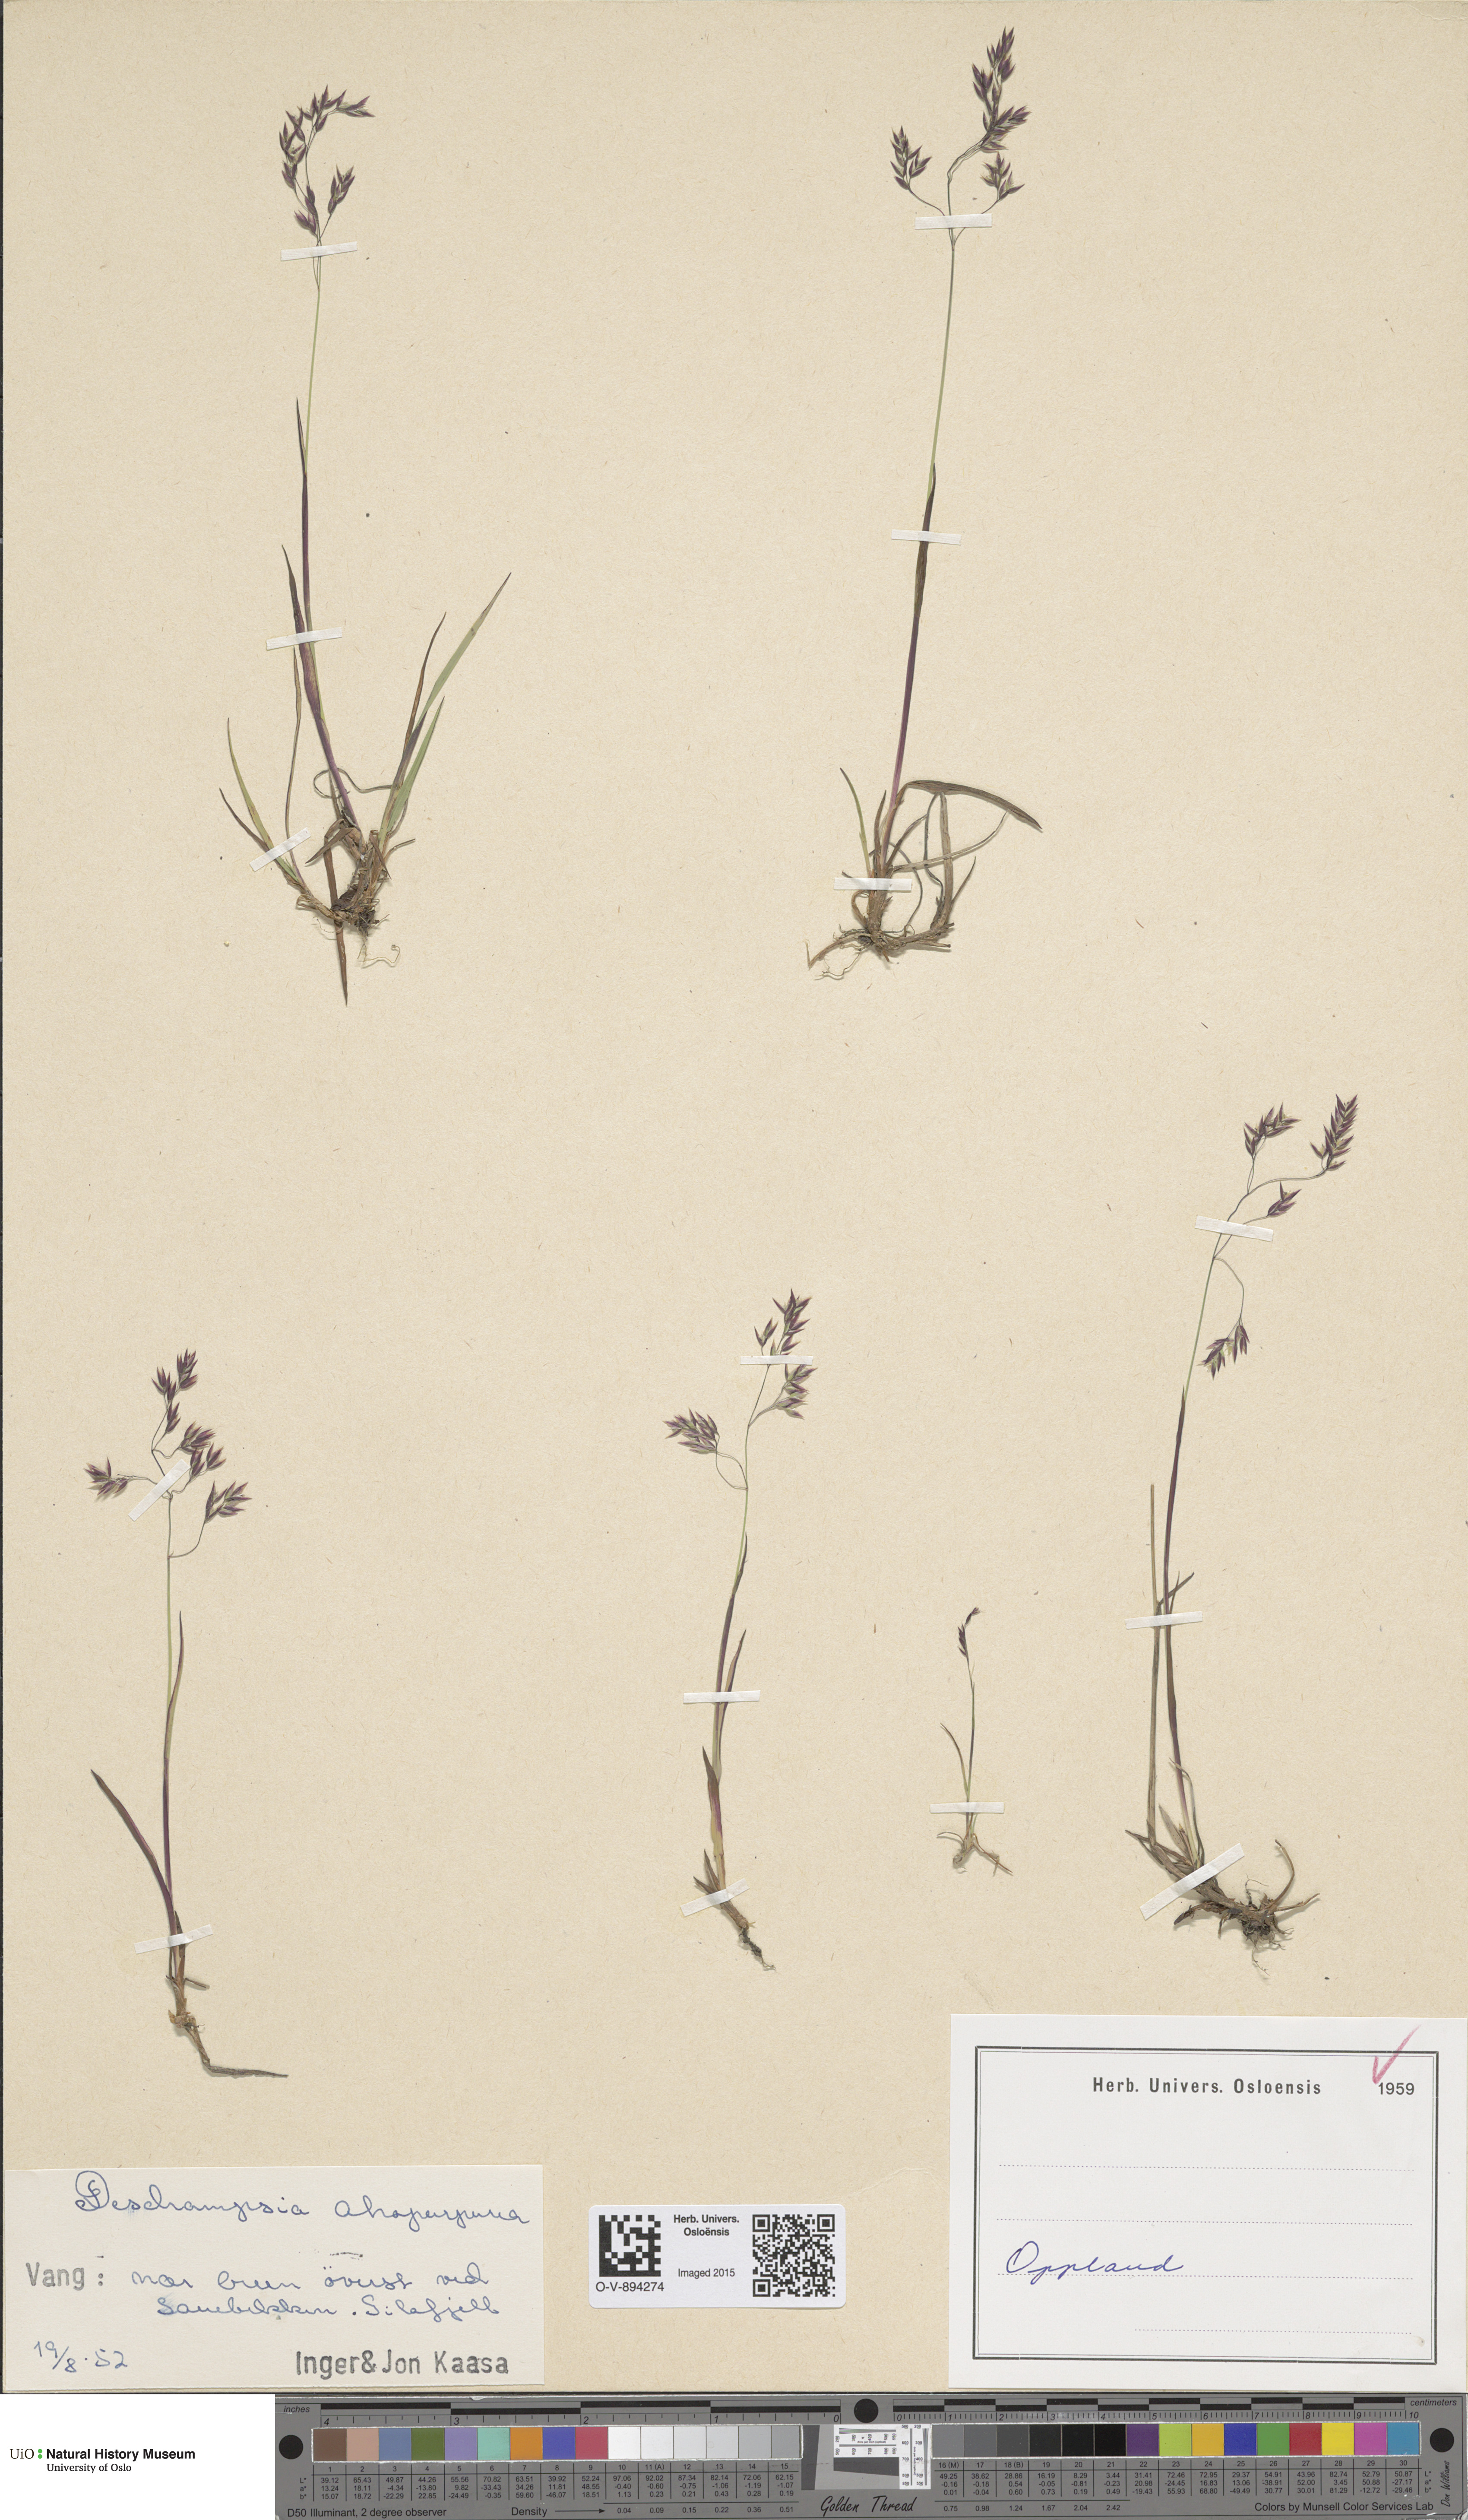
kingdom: Plantae
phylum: Tracheophyta
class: Liliopsida
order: Poales
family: Poaceae
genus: Vahlodea
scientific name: Vahlodea atropurpurea
